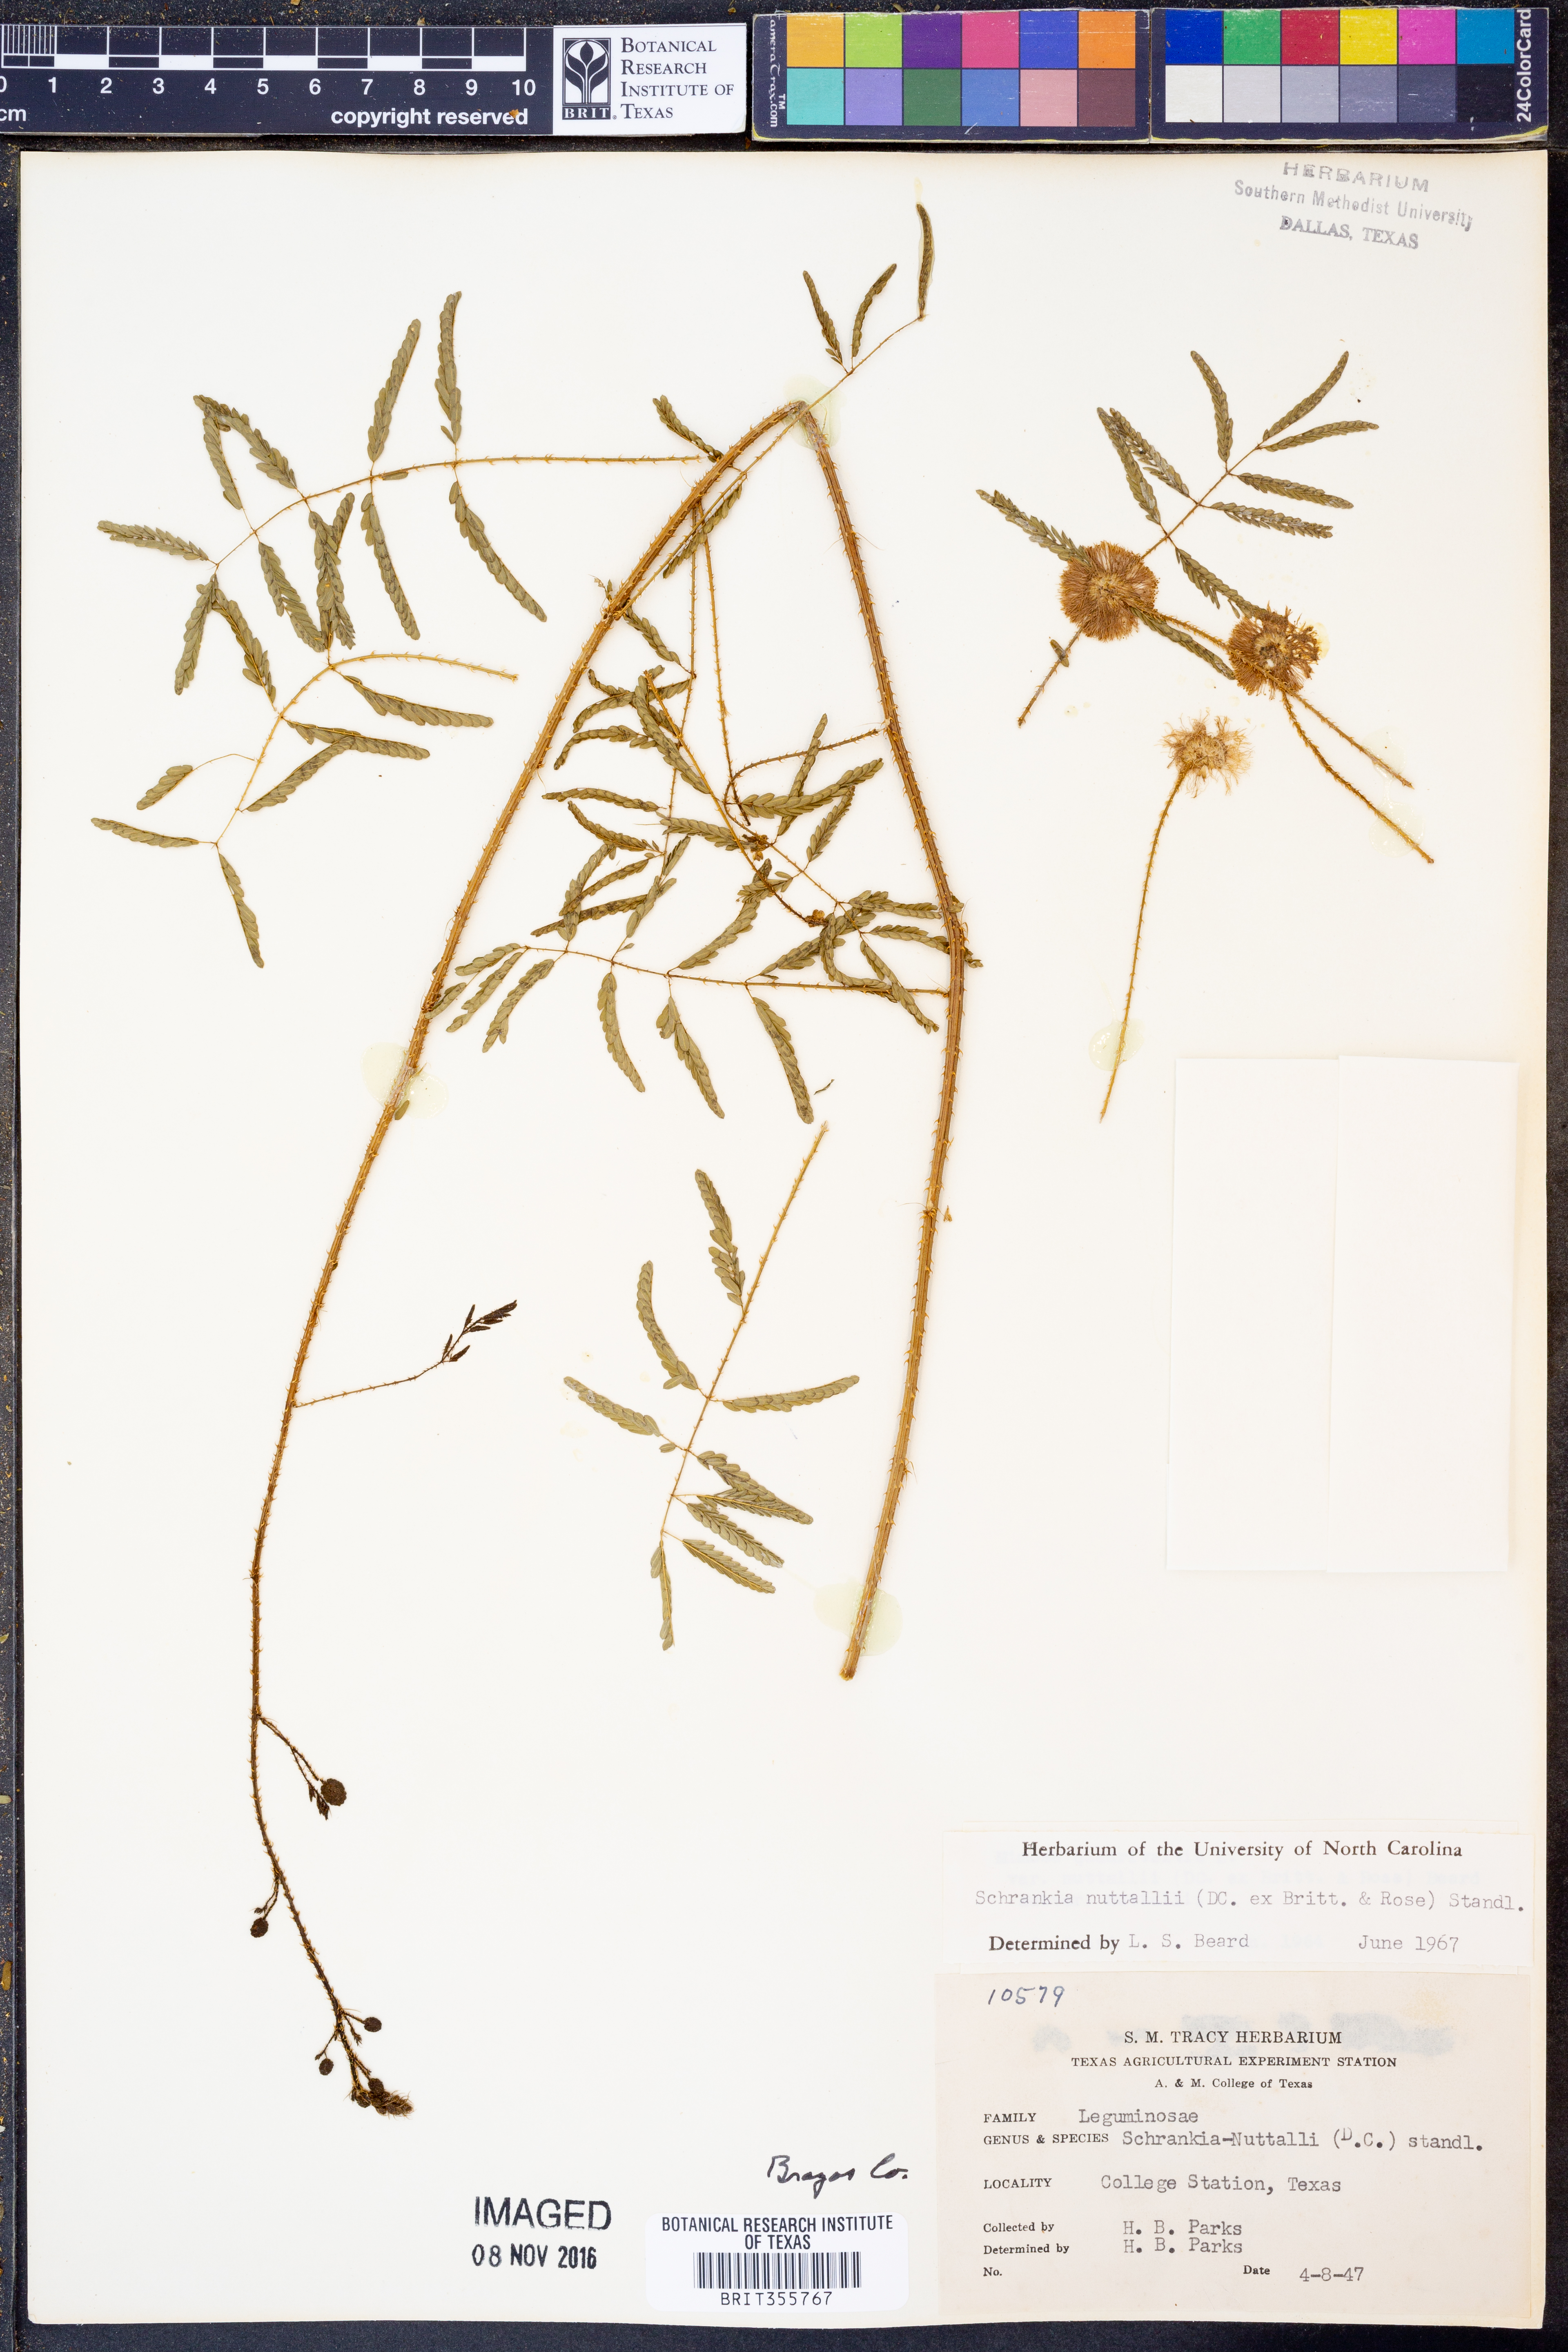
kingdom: Plantae
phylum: Tracheophyta
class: Magnoliopsida
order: Fabales
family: Fabaceae
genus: Mimosa
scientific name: Mimosa quadrivalvis
